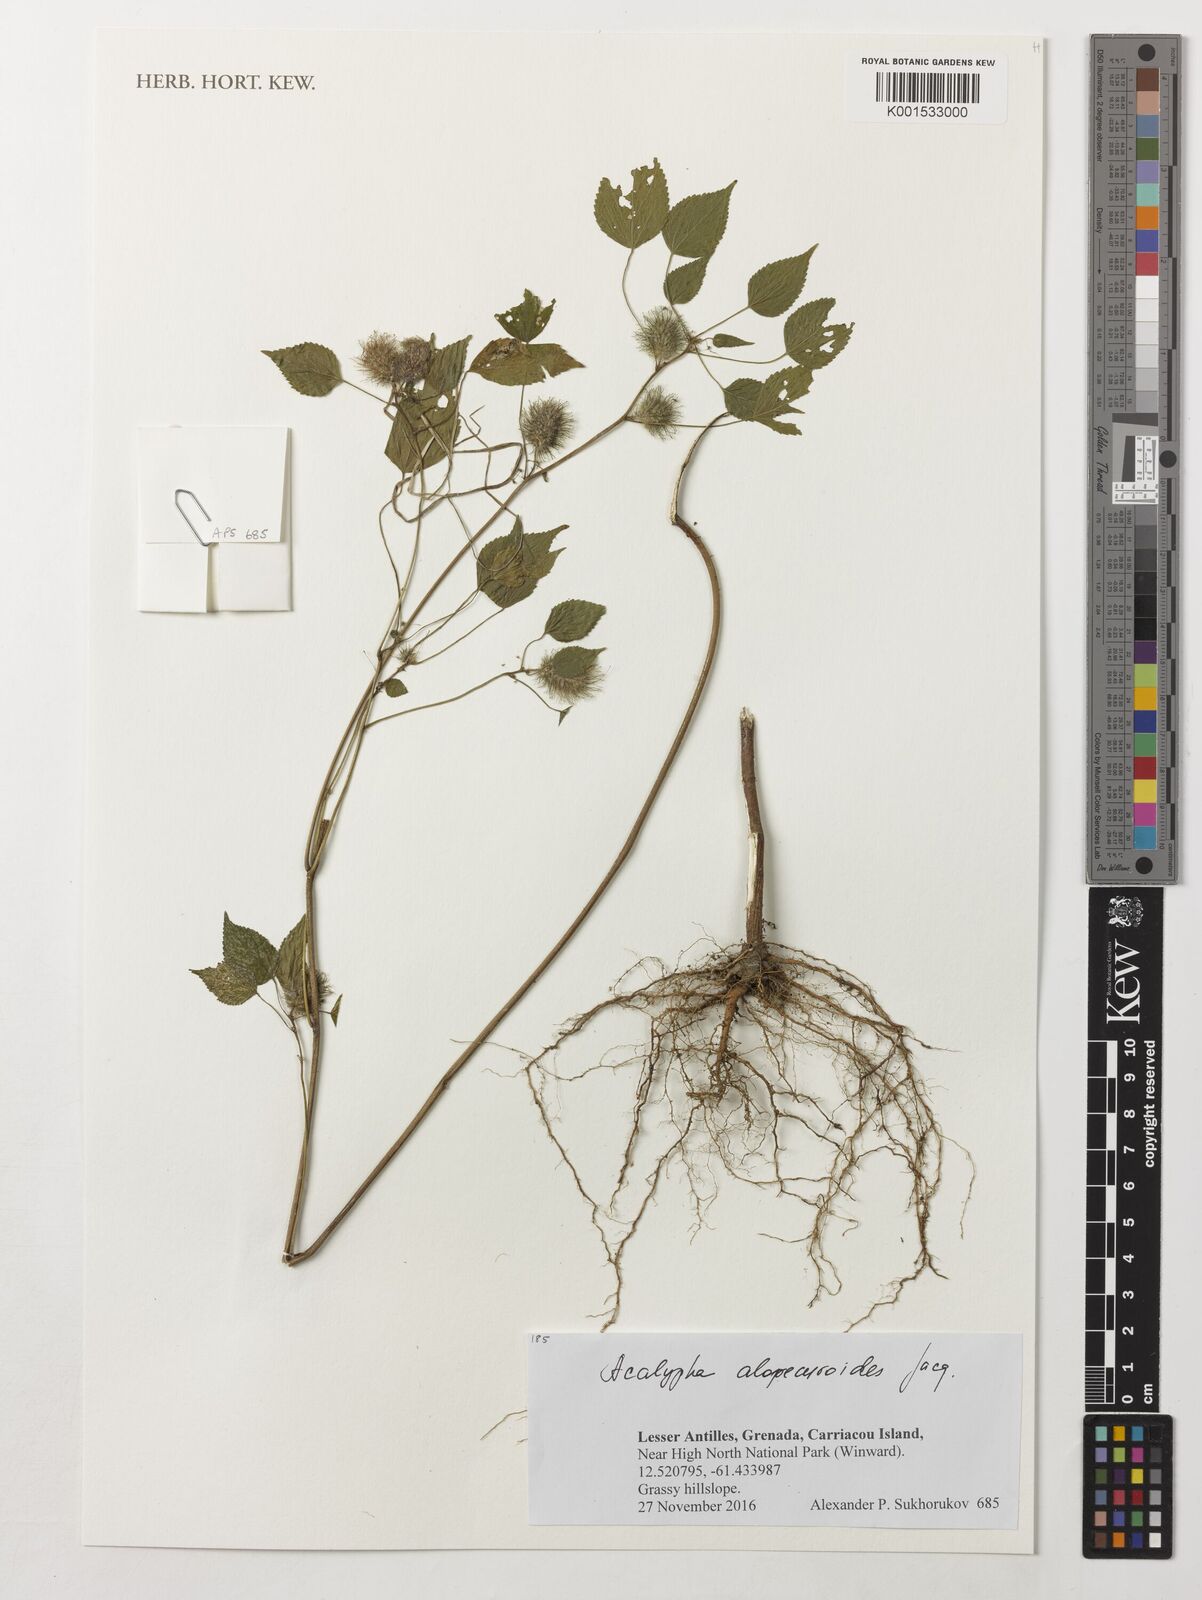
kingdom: Plantae
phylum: Tracheophyta
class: Magnoliopsida
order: Malpighiales
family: Euphorbiaceae
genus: Acalypha
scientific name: Acalypha alopecuroidea
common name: Foxtail copperleaf
